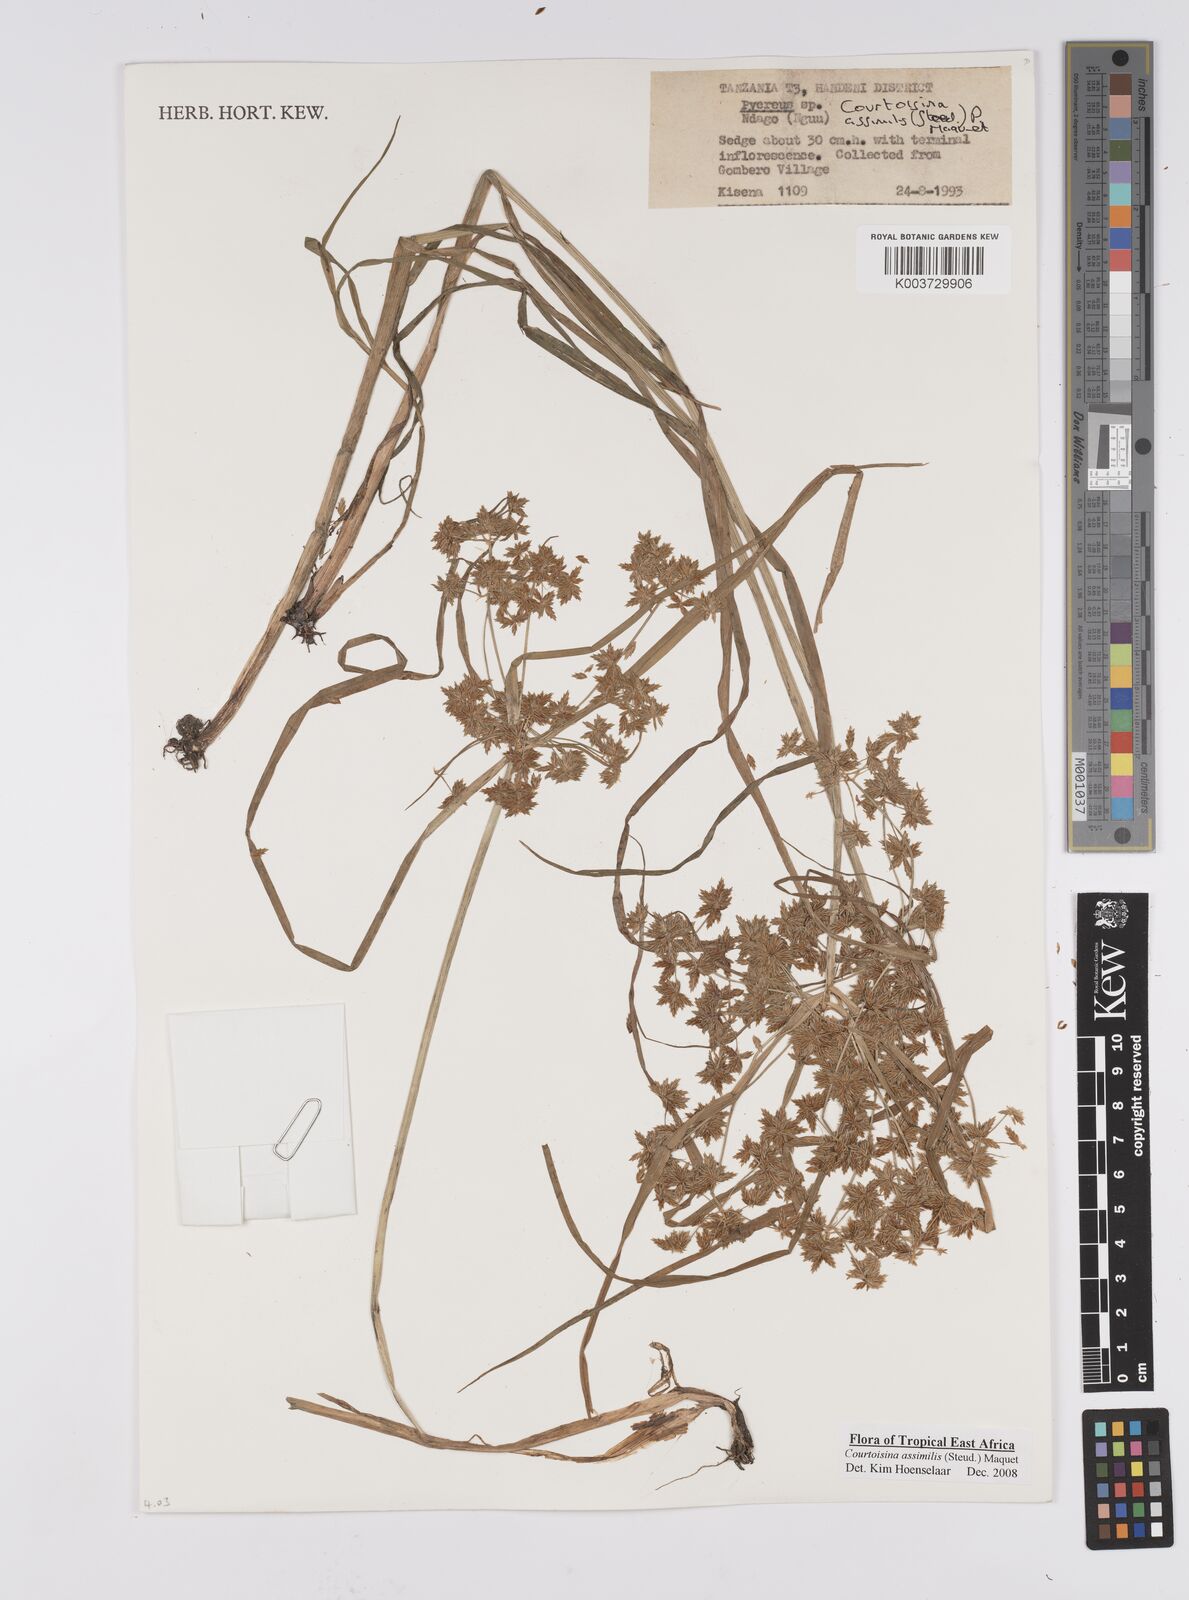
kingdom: Plantae
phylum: Tracheophyta
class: Liliopsida
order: Poales
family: Cyperaceae
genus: Cyperus
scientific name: Cyperus assimilis
